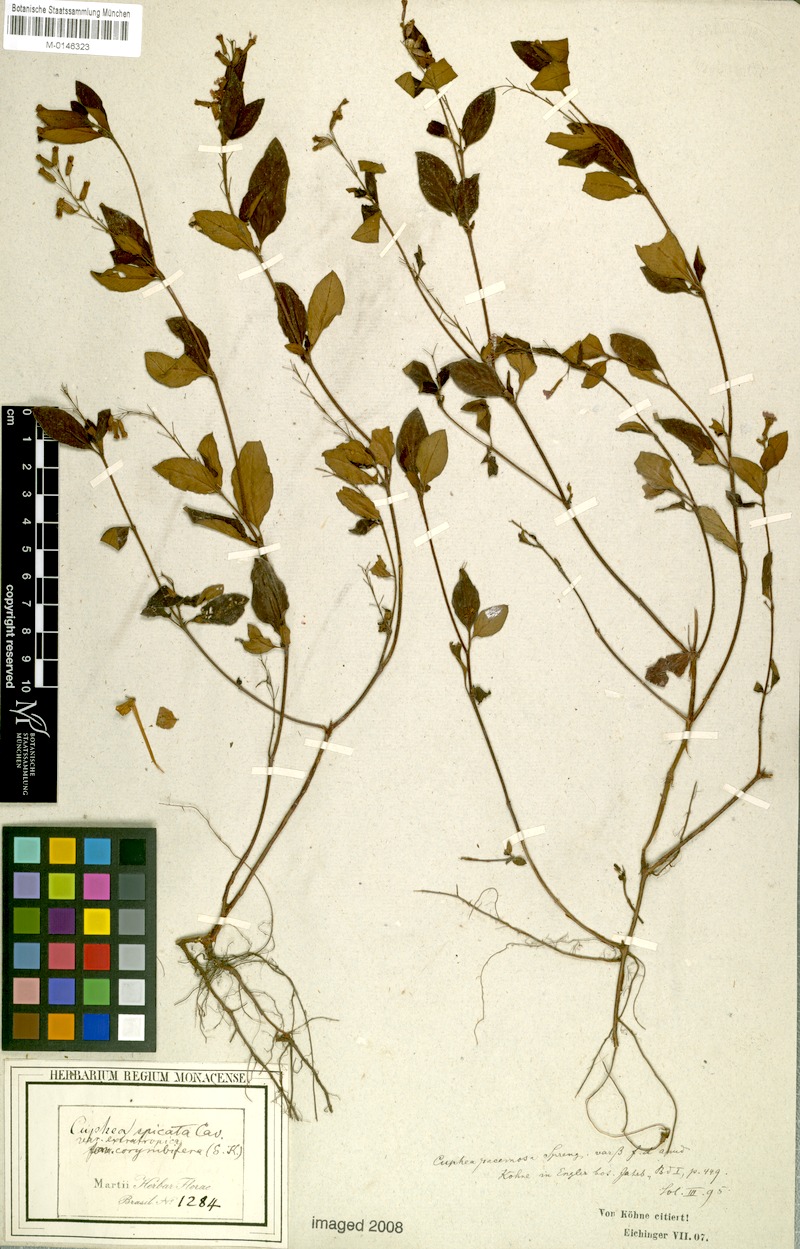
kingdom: Plantae
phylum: Tracheophyta
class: Magnoliopsida
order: Myrtales
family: Lythraceae
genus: Cuphea
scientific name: Cuphea racemosa
